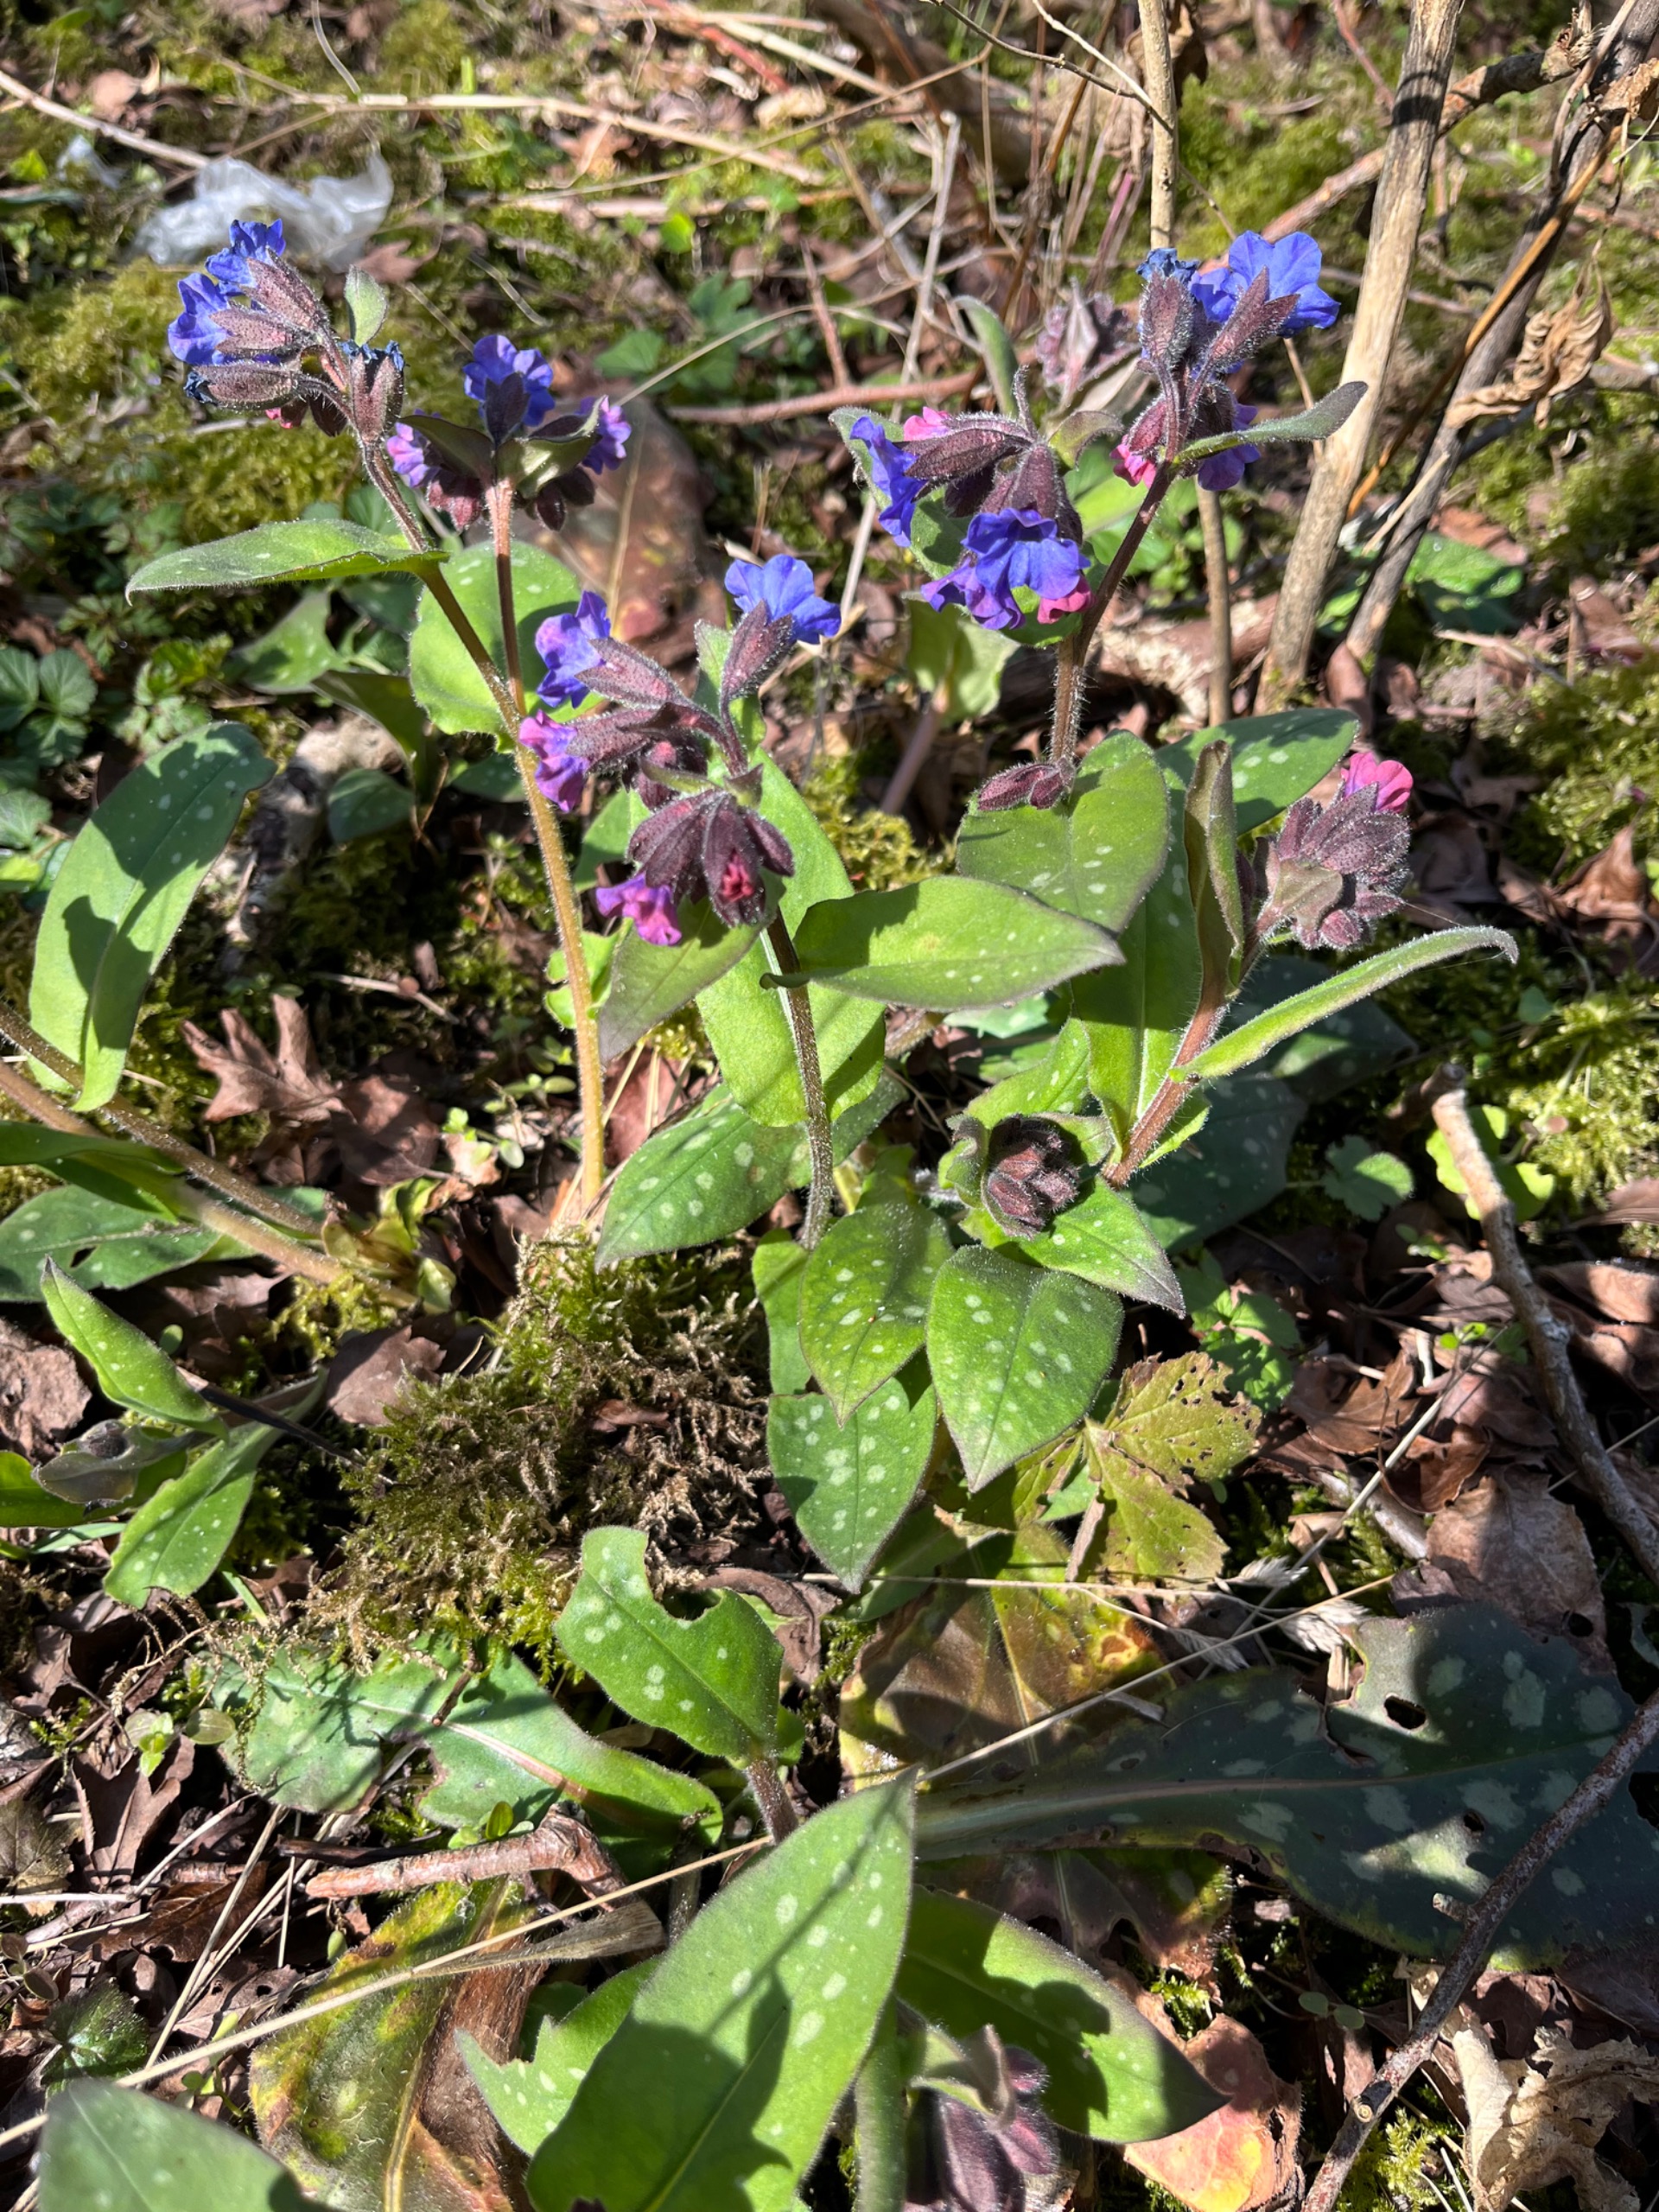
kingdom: Plantae
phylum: Tracheophyta
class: Magnoliopsida
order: Boraginales
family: Boraginaceae
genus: Pulmonaria
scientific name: Pulmonaria saccharata
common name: Storbladet lungeurt
